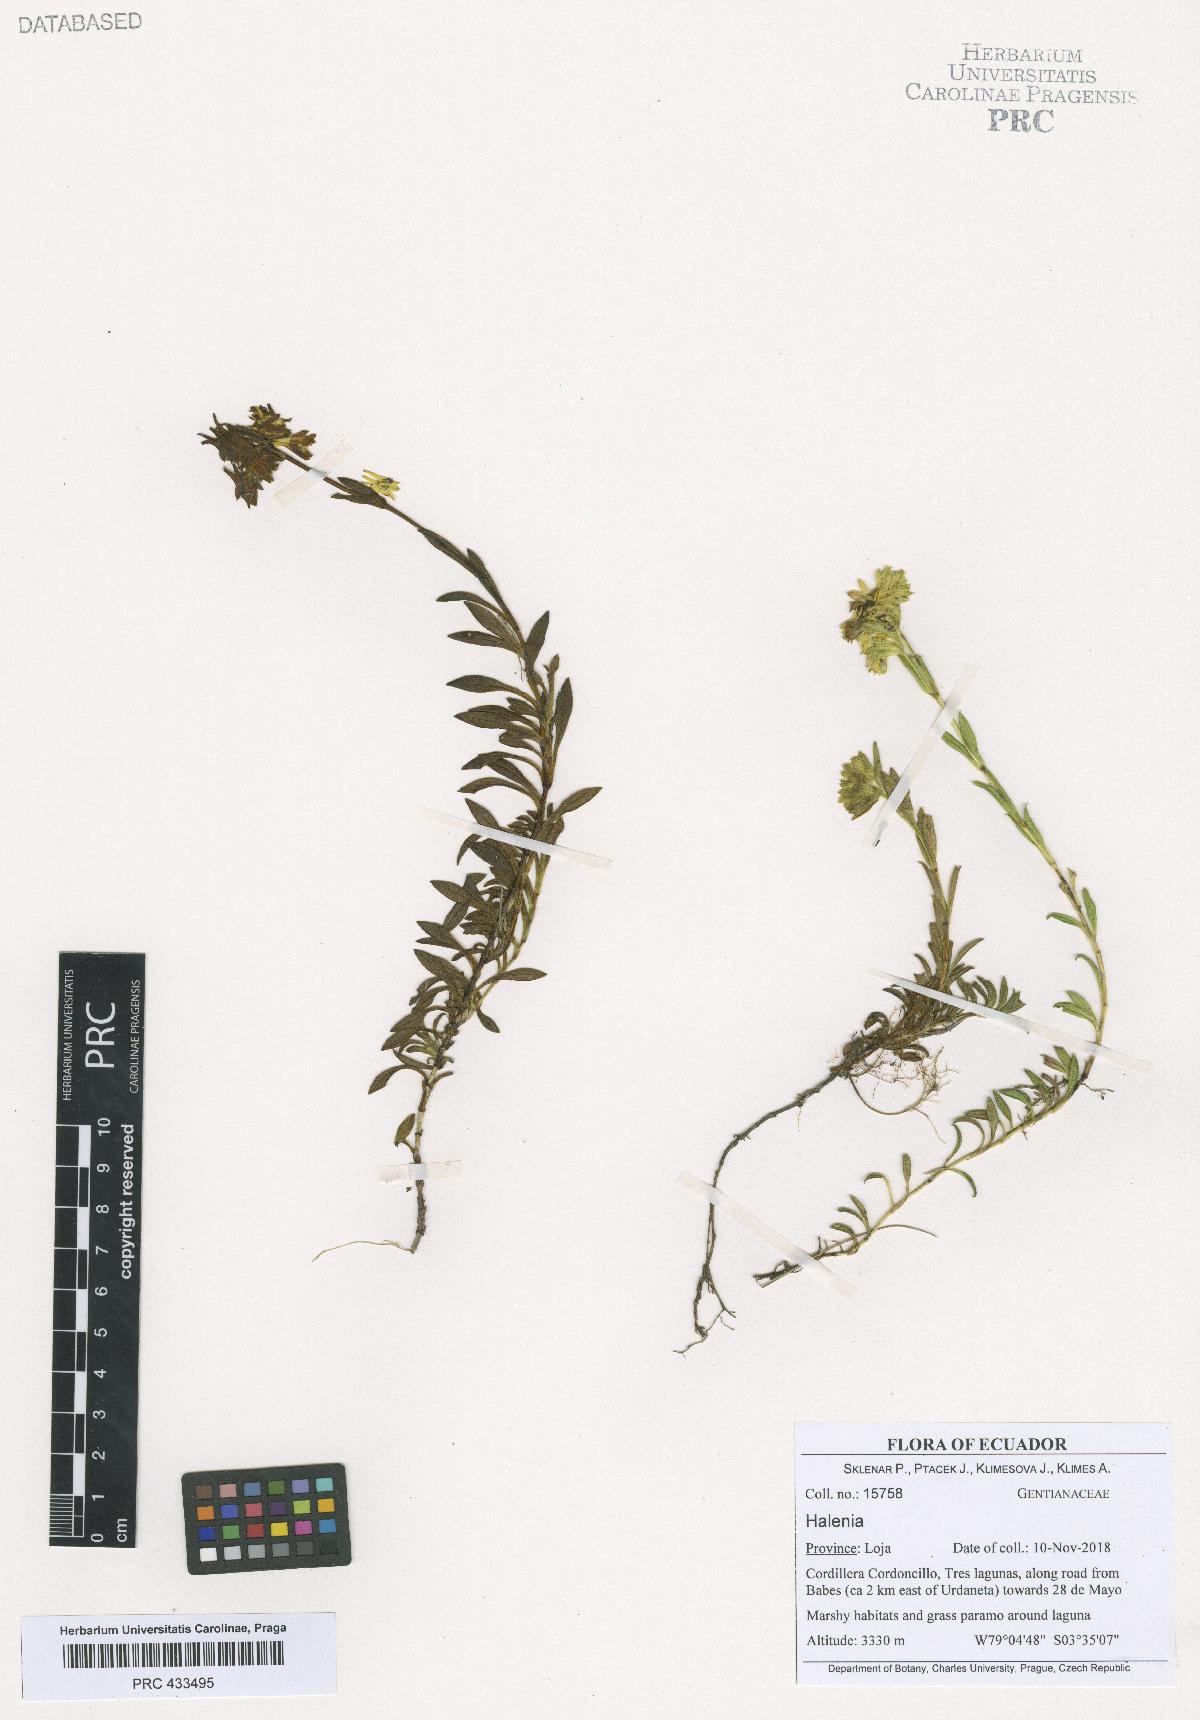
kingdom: Plantae
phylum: Tracheophyta
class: Magnoliopsida
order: Gentianales
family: Gentianaceae
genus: Halenia
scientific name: Halenia
